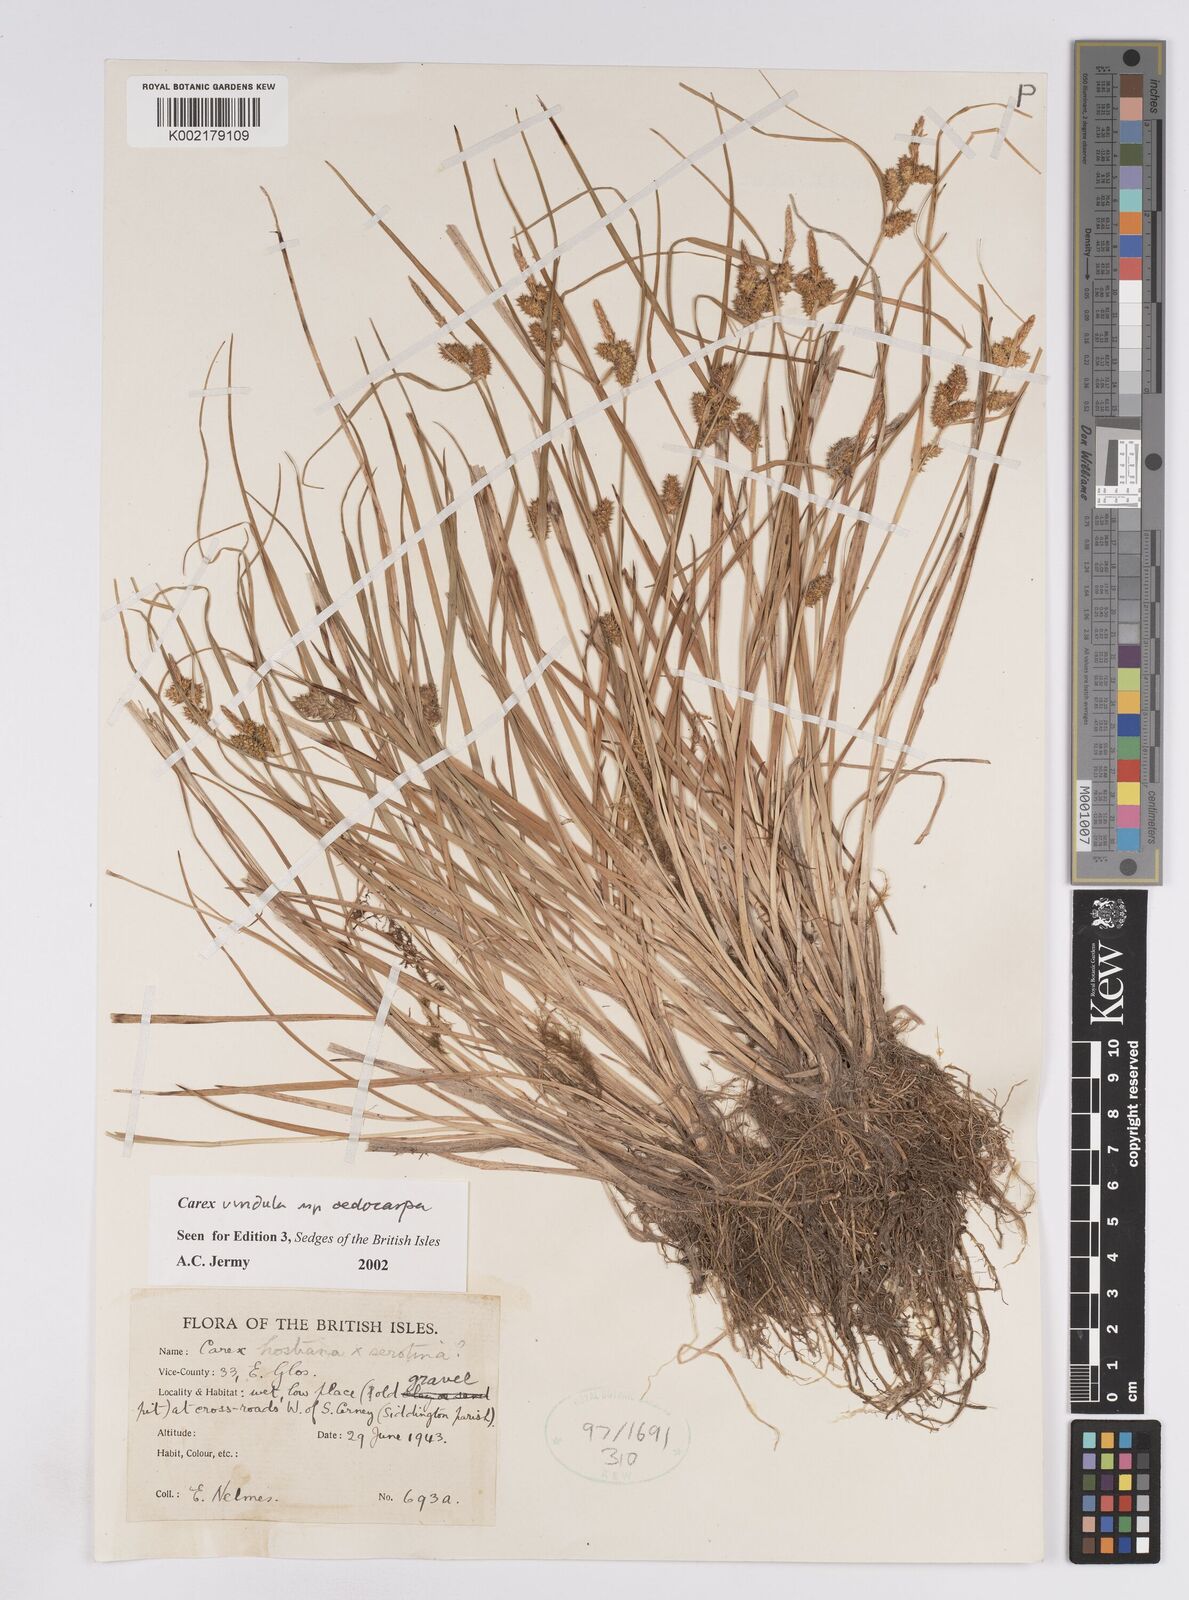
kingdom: Plantae
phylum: Tracheophyta
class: Liliopsida
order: Poales
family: Cyperaceae
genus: Carex
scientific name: Carex demissa
